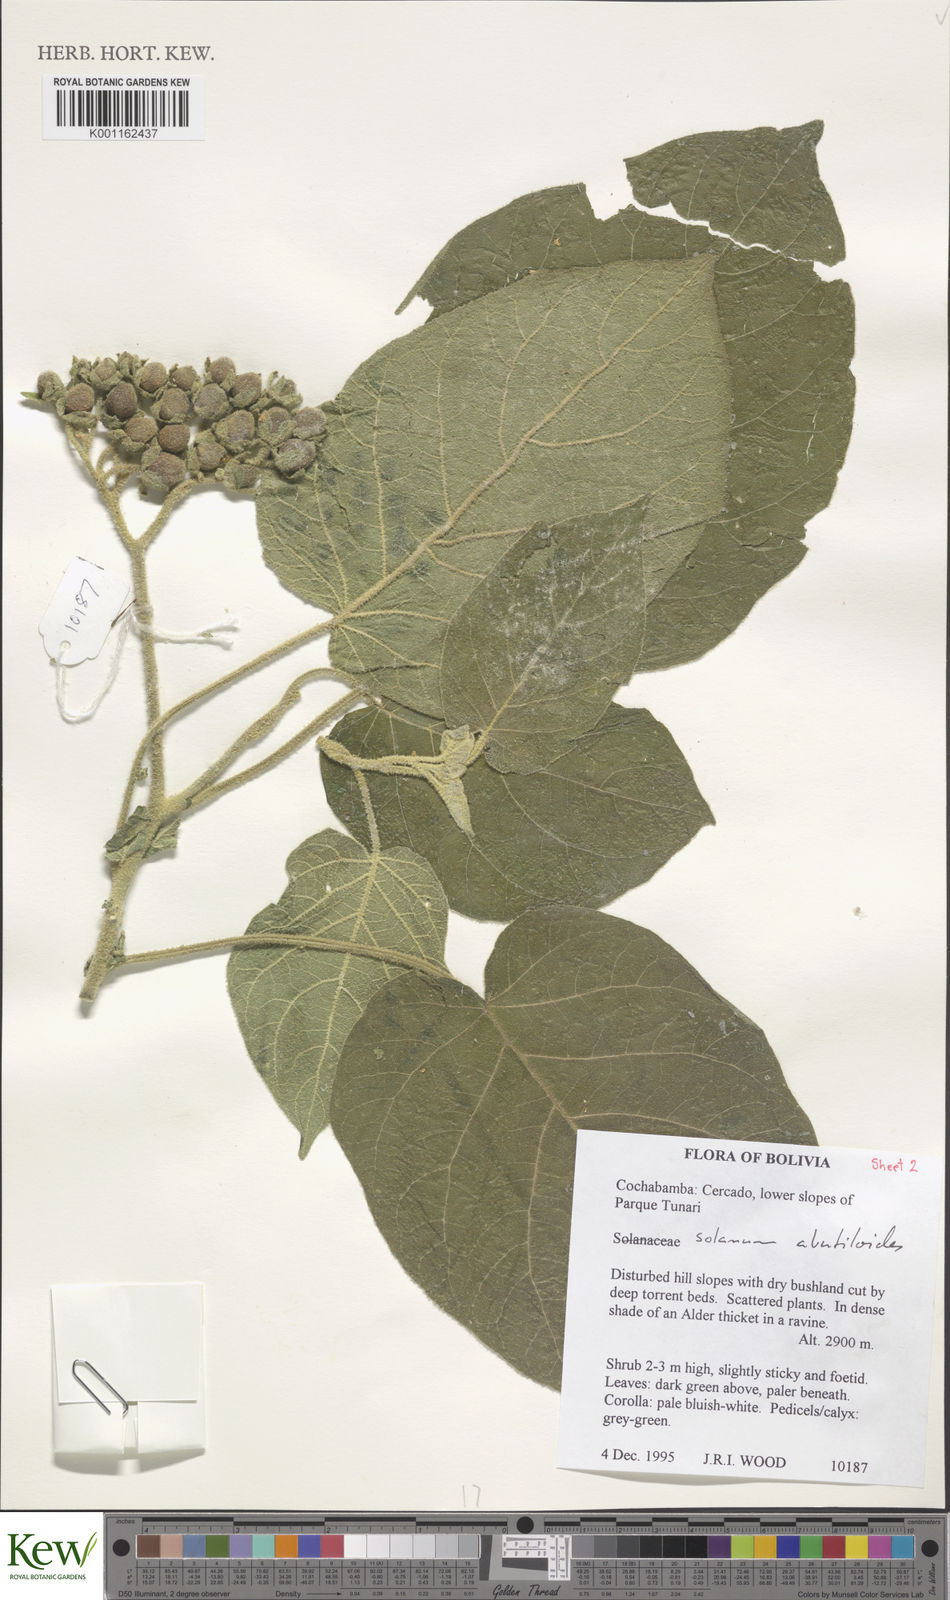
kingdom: Plantae
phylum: Tracheophyta
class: Magnoliopsida
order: Solanales
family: Solanaceae
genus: Solanum
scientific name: Solanum abutiloides
